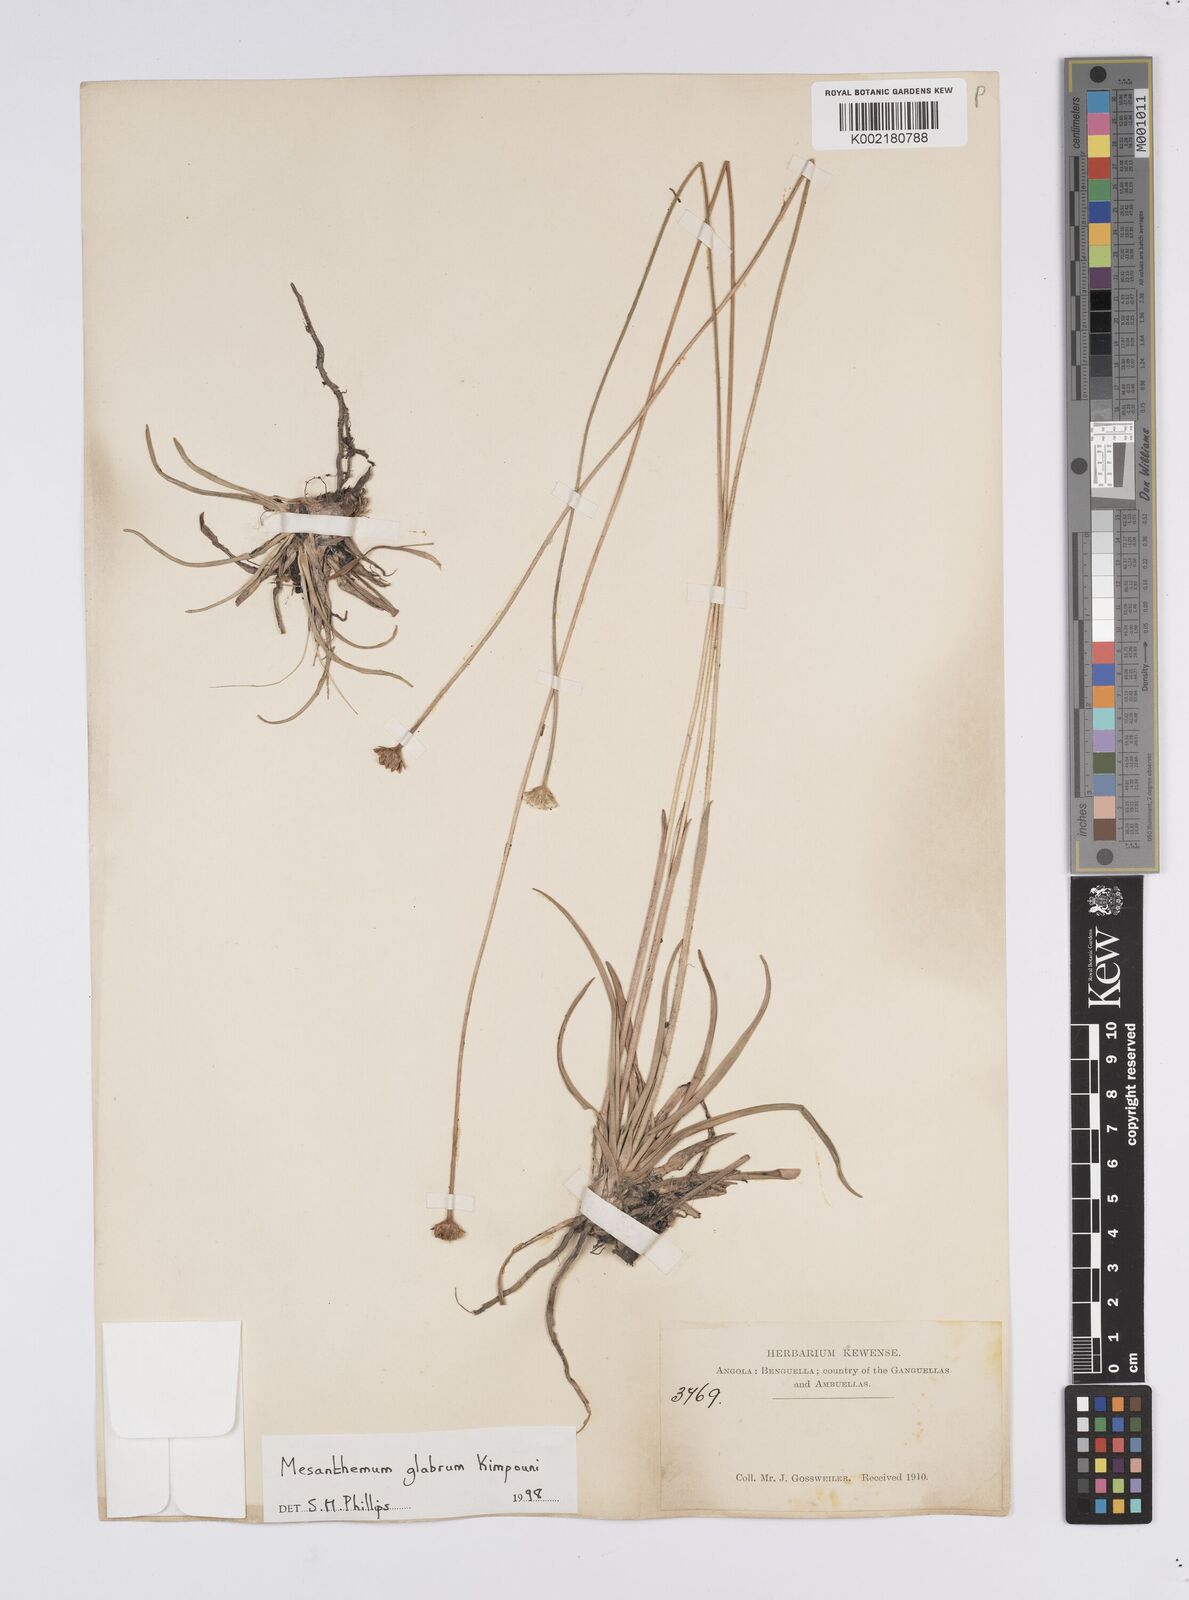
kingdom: Plantae
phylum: Tracheophyta
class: Liliopsida
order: Poales
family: Eriocaulaceae
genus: Mesanthemum
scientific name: Mesanthemum glabrum
